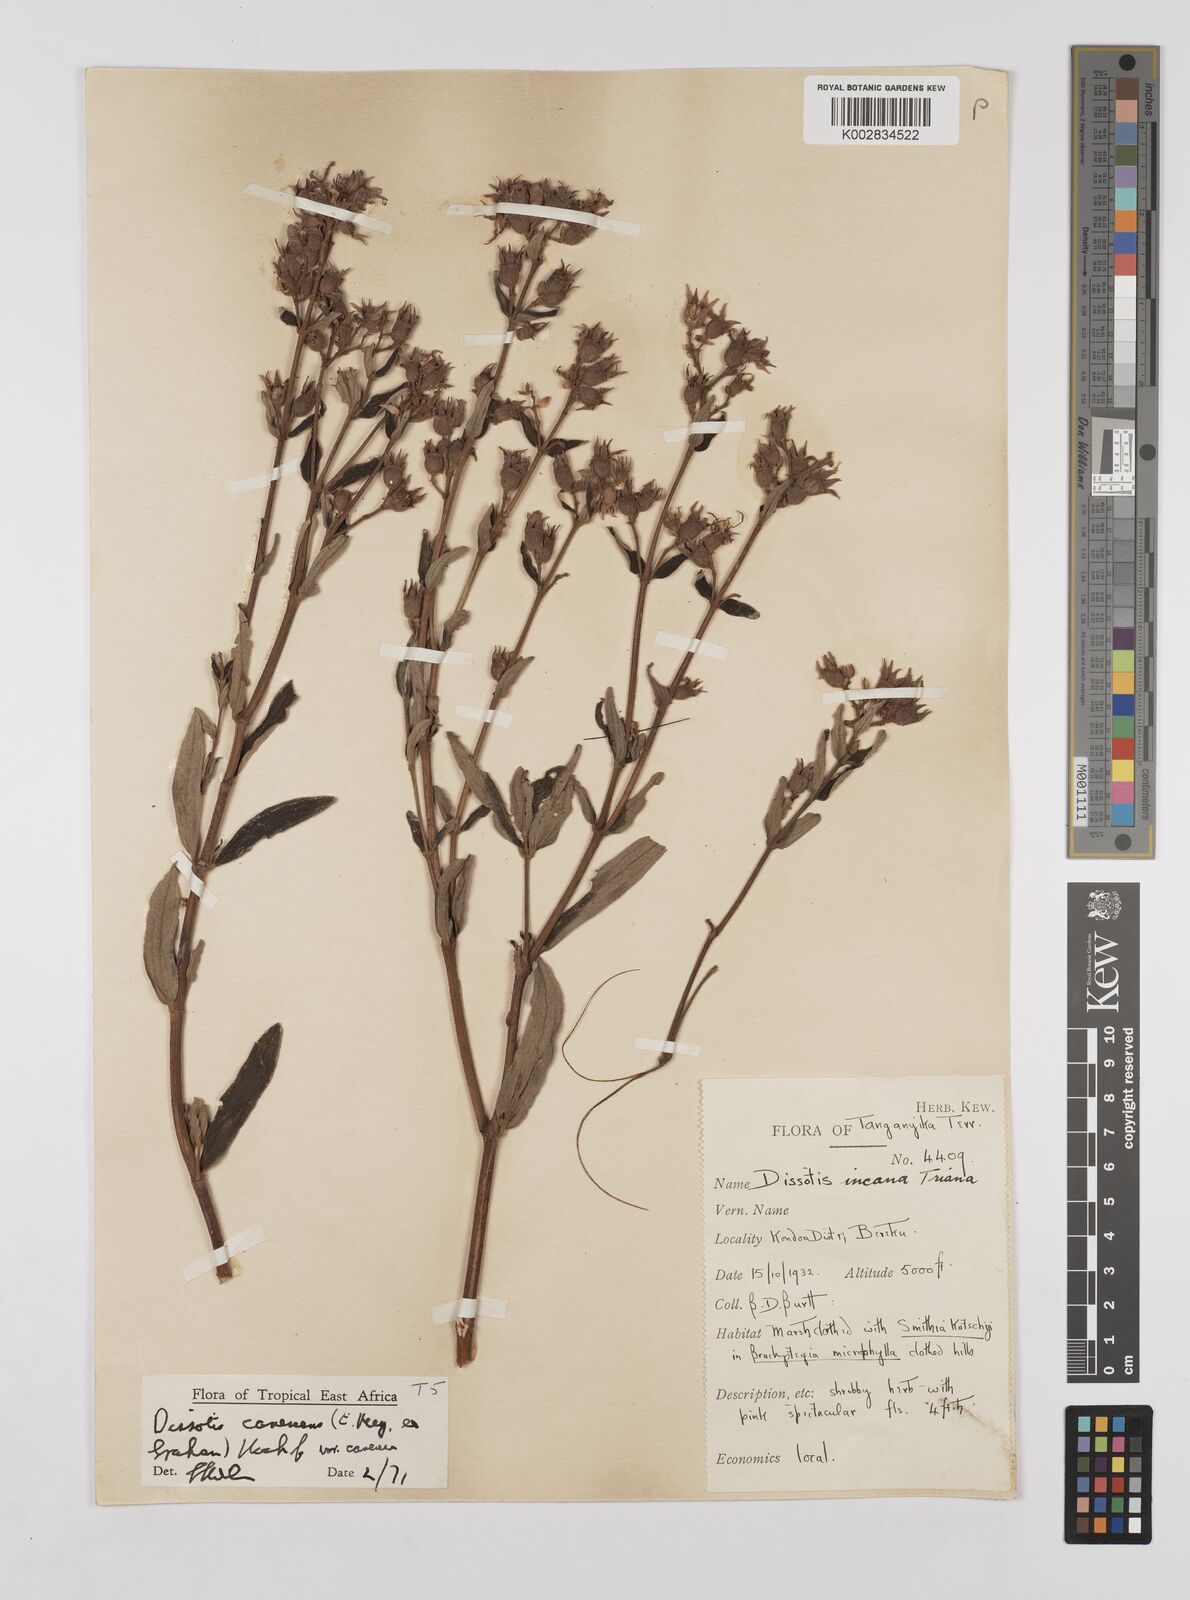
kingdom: Plantae
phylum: Tracheophyta
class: Magnoliopsida
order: Myrtales
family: Melastomataceae
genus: Argyrella
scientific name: Argyrella canescens
